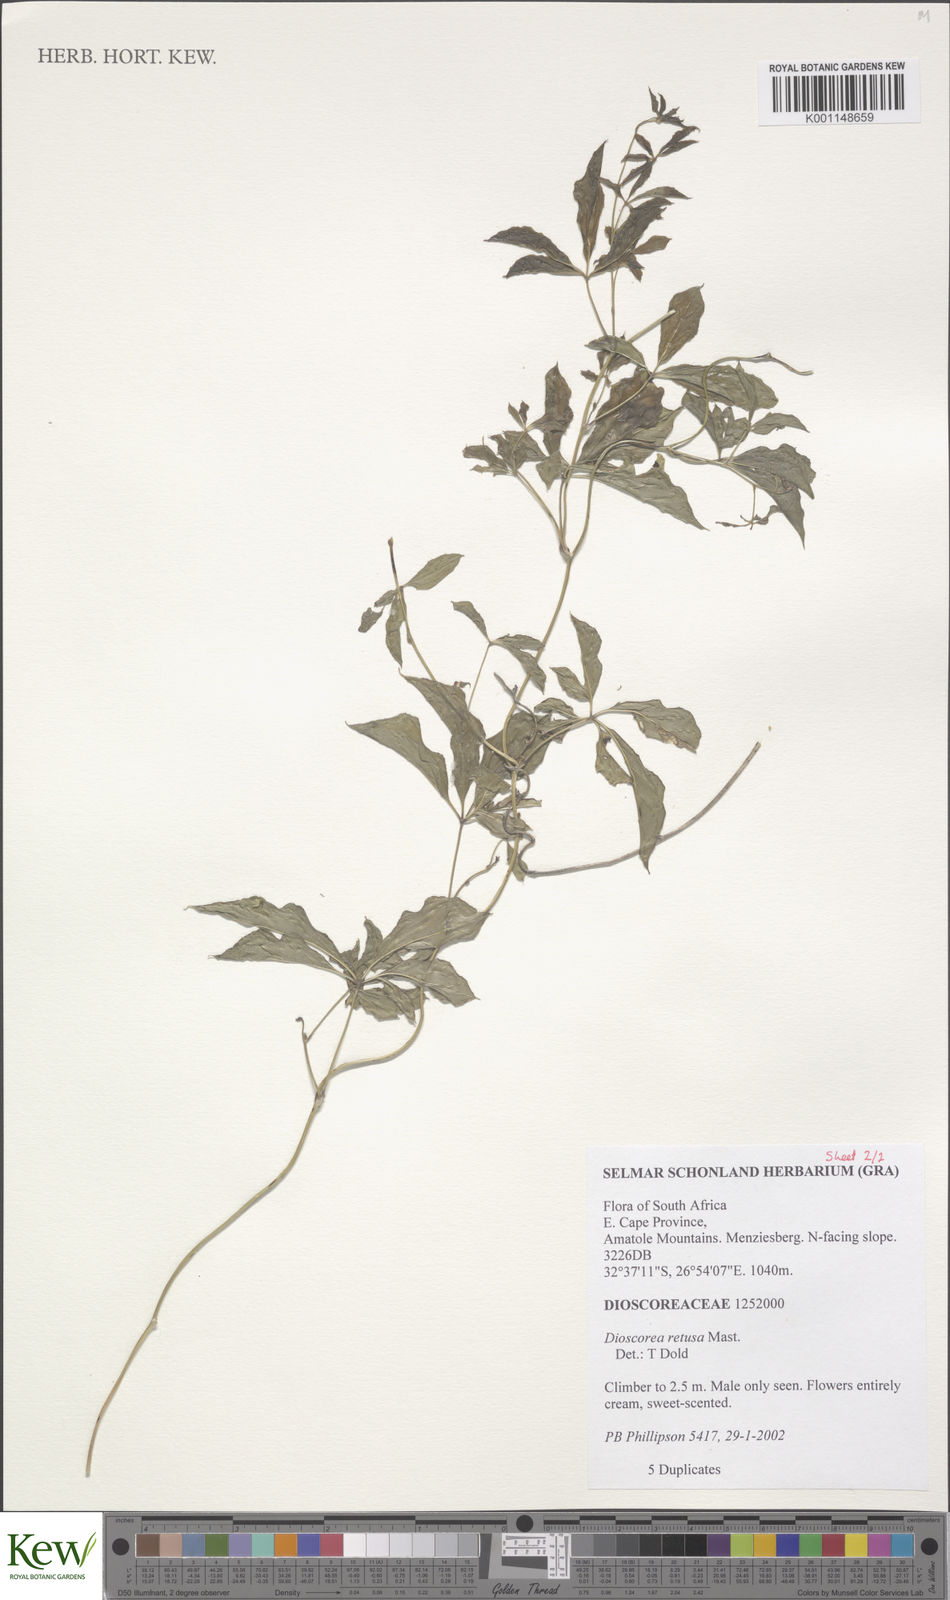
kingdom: Plantae
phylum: Tracheophyta
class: Liliopsida
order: Dioscoreales
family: Dioscoreaceae
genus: Dioscorea
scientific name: Dioscorea retusa
